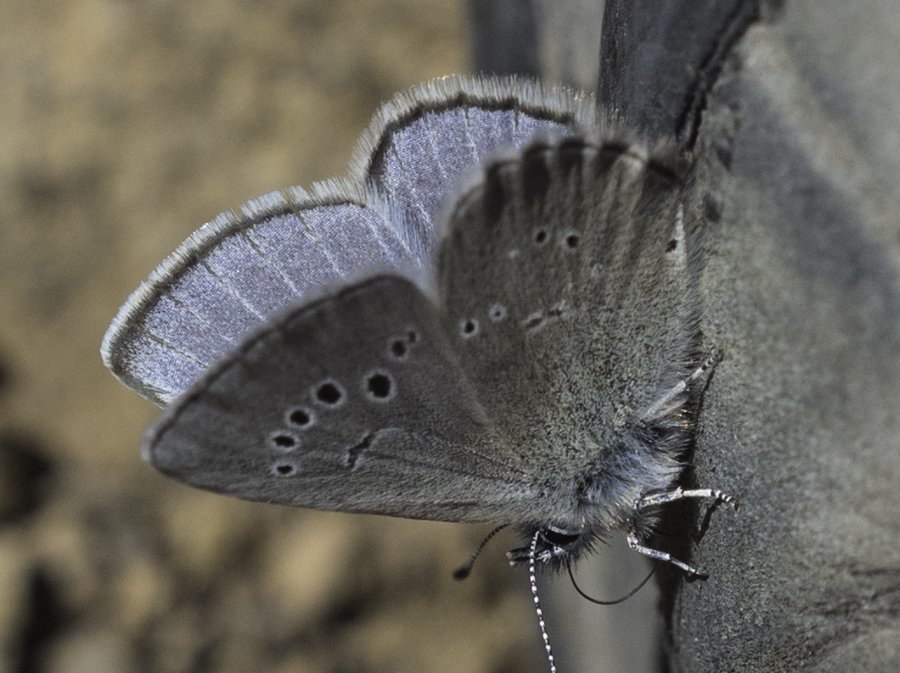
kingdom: Animalia
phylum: Arthropoda
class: Insecta
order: Lepidoptera
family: Lycaenidae
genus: Glaucopsyche
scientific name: Glaucopsyche lygdamus
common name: Silvery Blue
